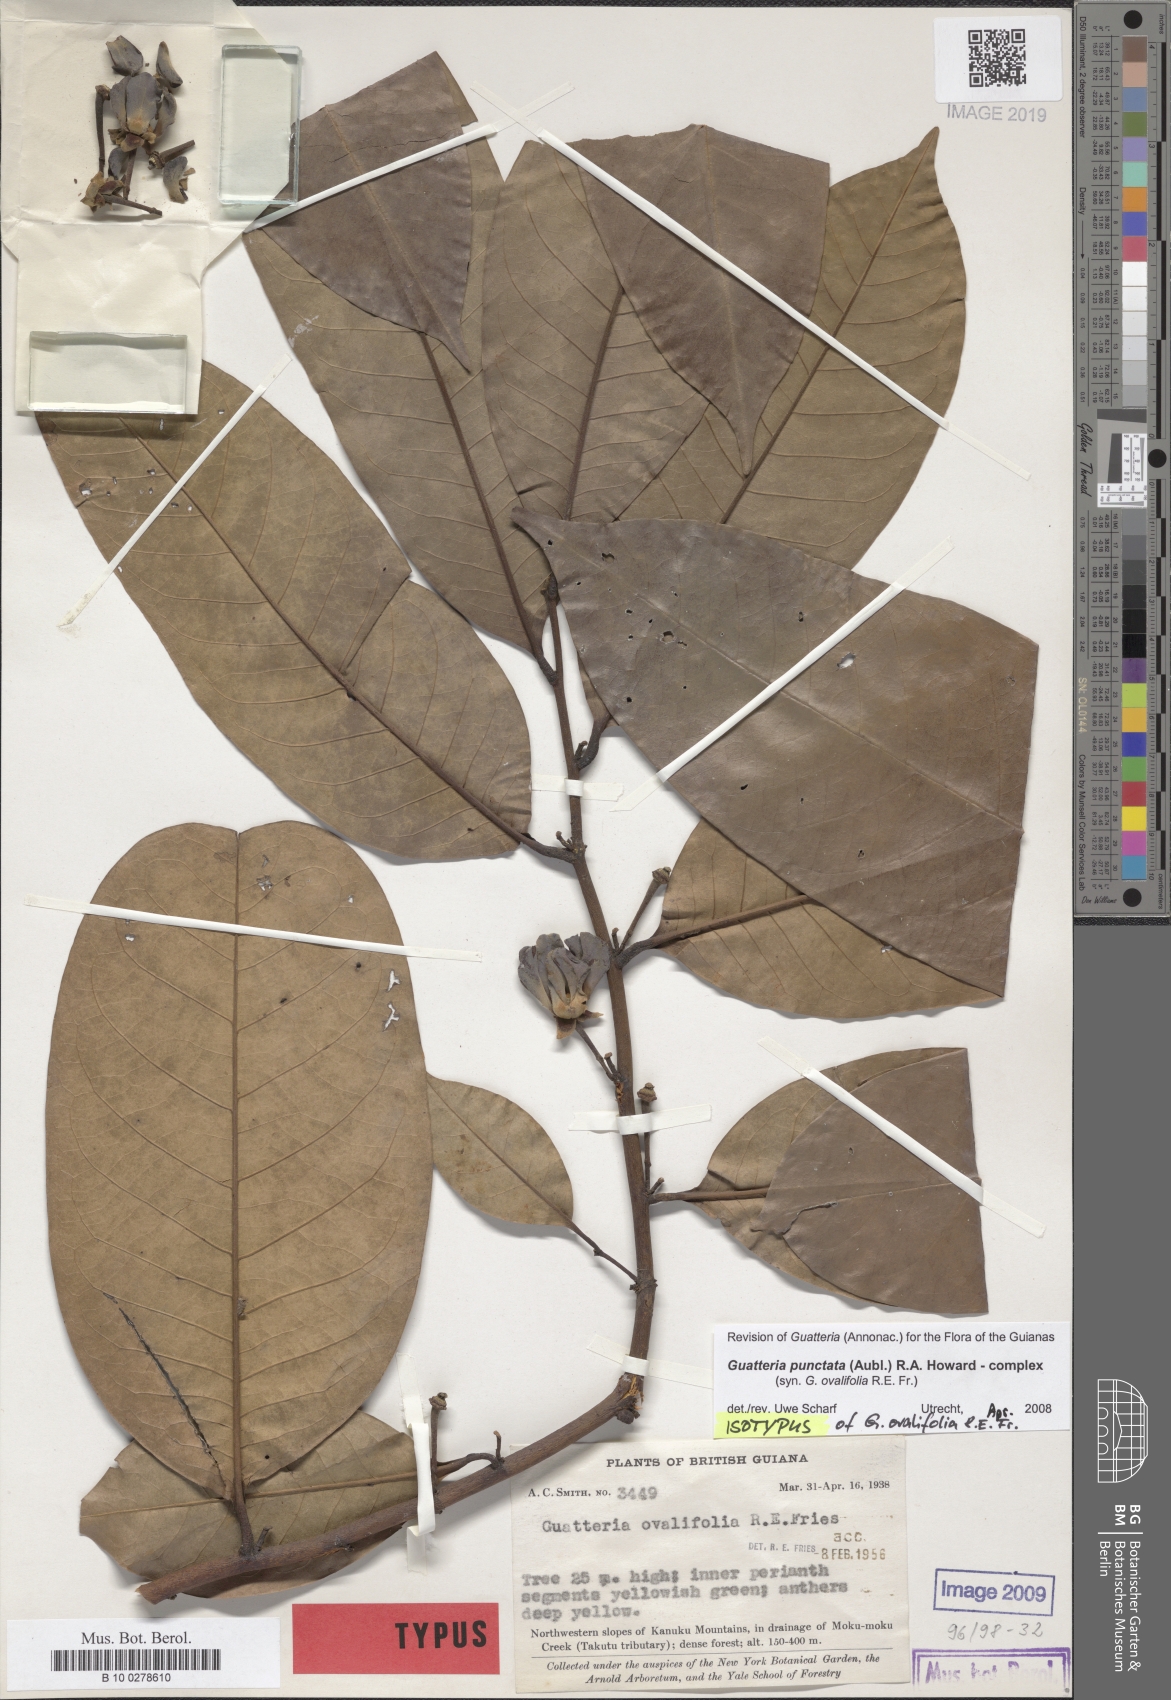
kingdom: Plantae
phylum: Tracheophyta
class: Magnoliopsida
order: Magnoliales
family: Annonaceae
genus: Guatteria
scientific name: Guatteria punctata
